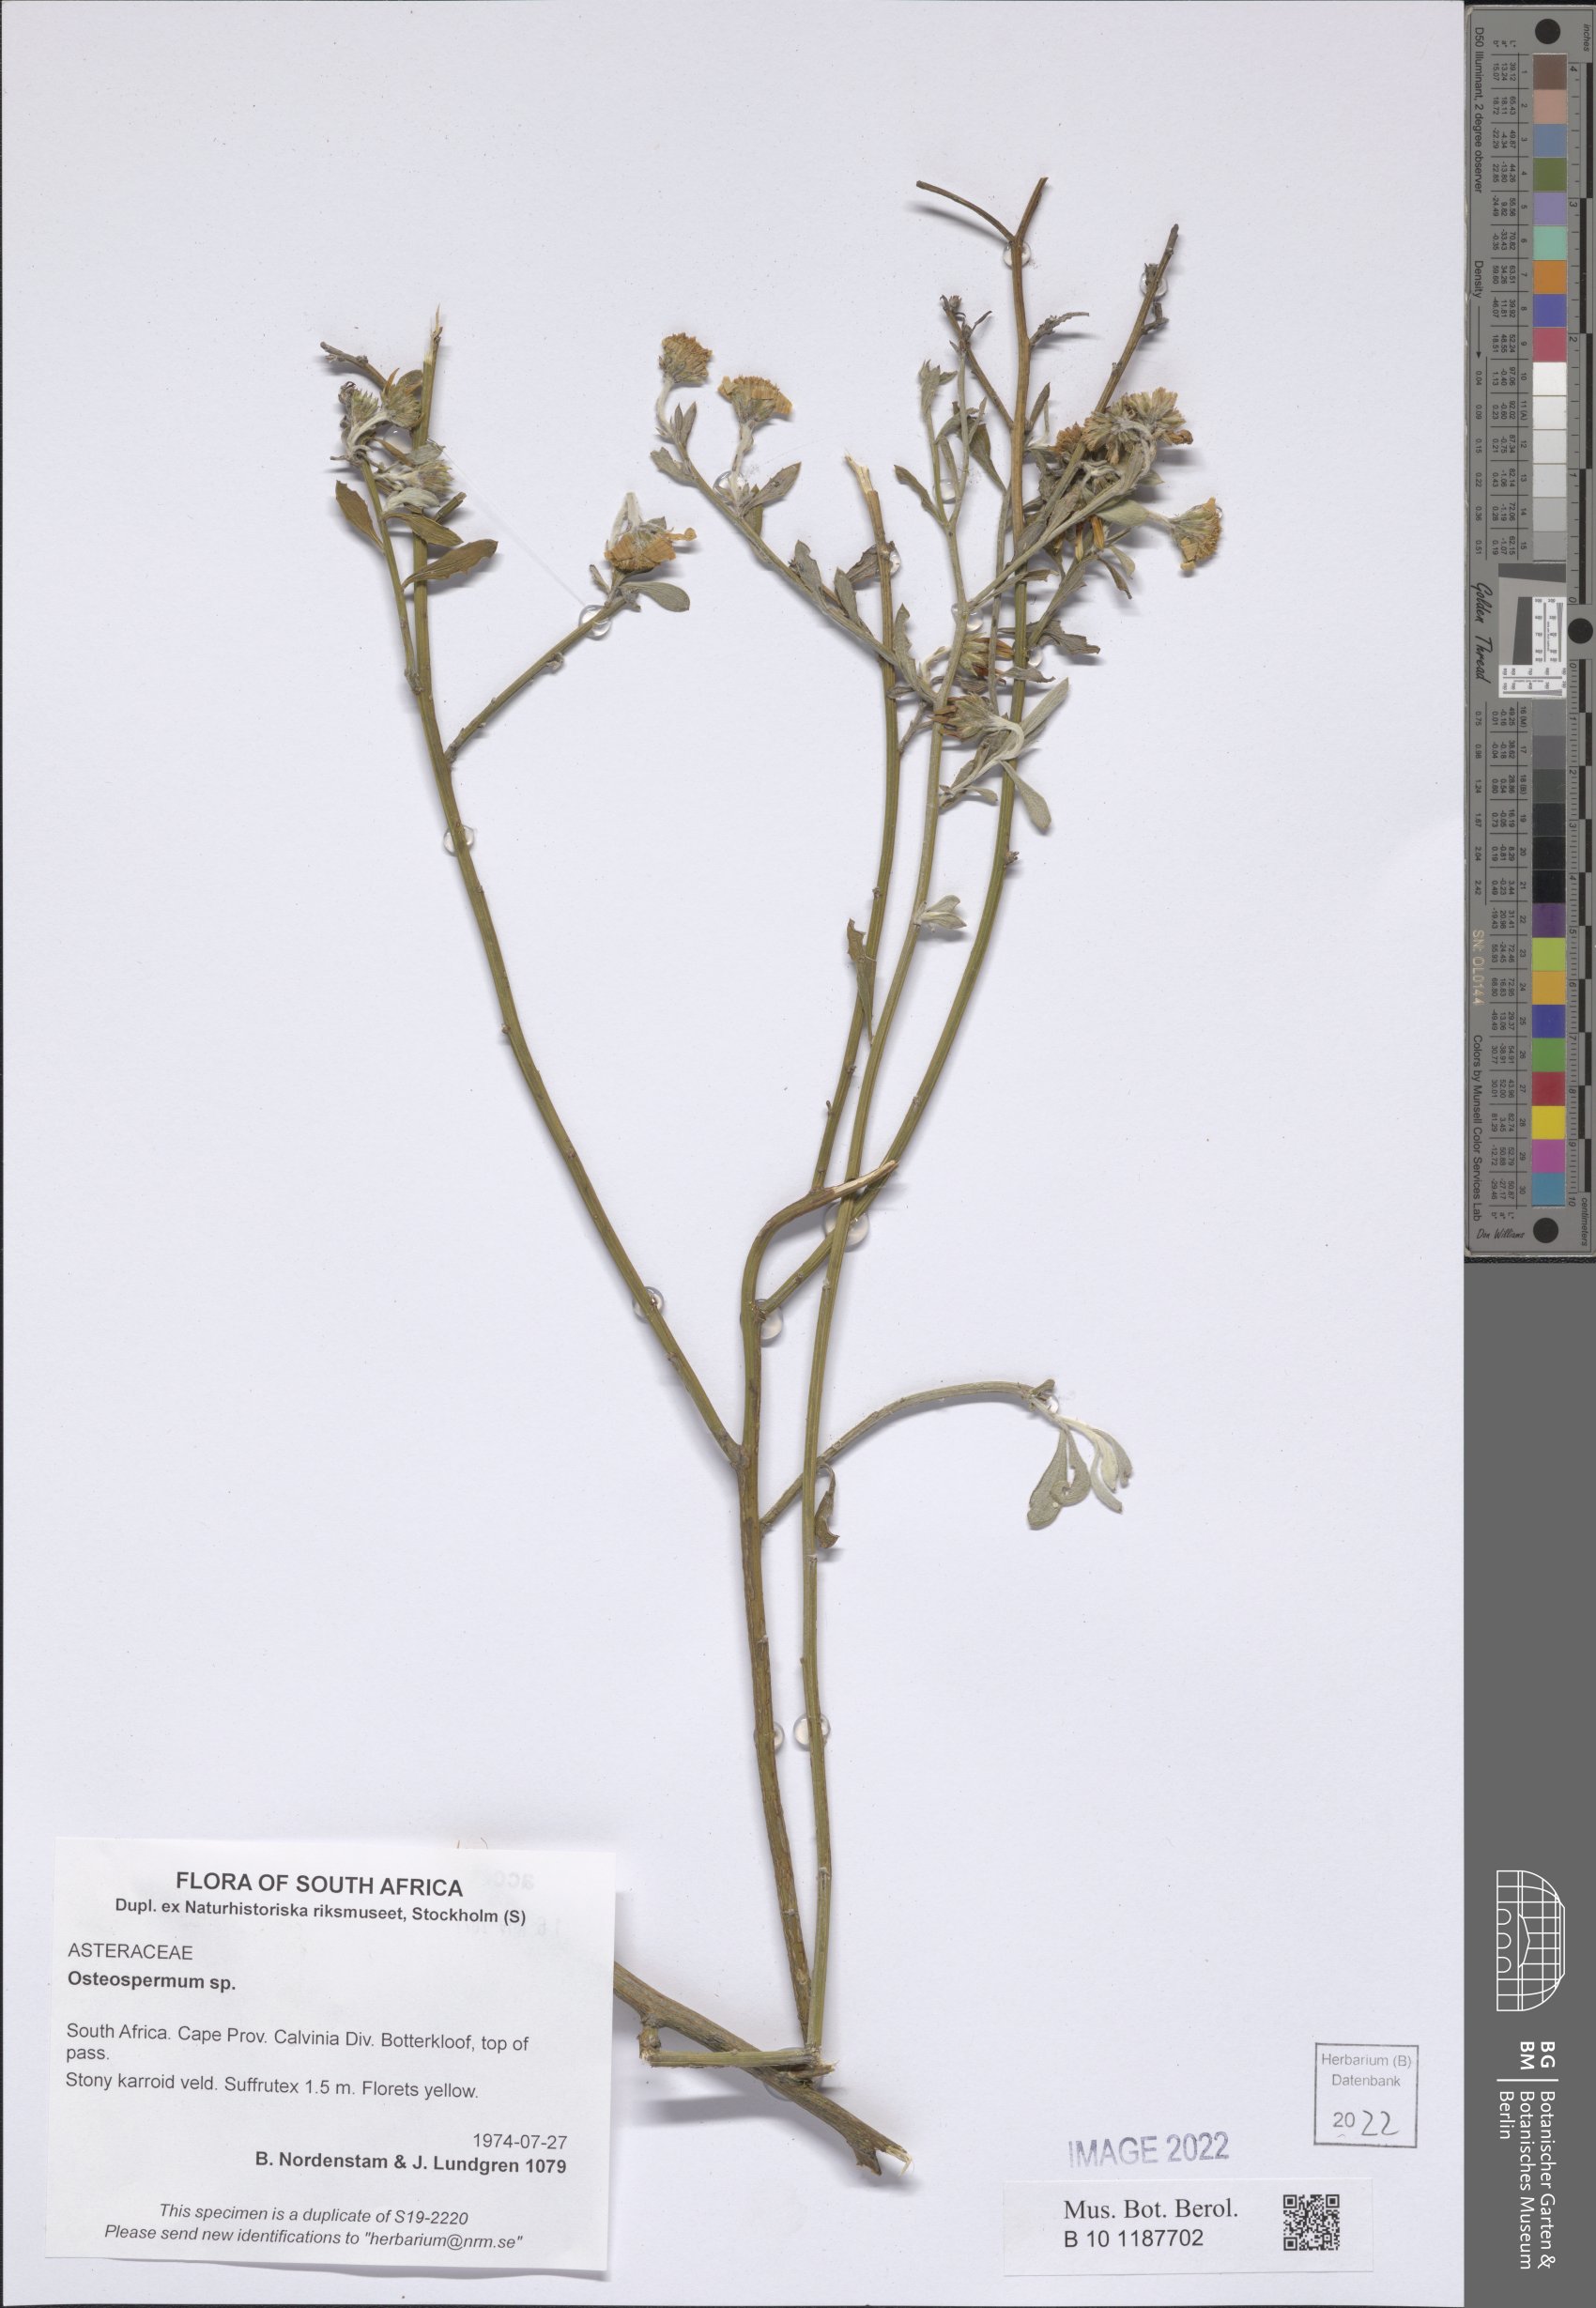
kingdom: Plantae
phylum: Tracheophyta
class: Magnoliopsida
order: Asterales
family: Asteraceae
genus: Osteospermum
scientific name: Osteospermum
